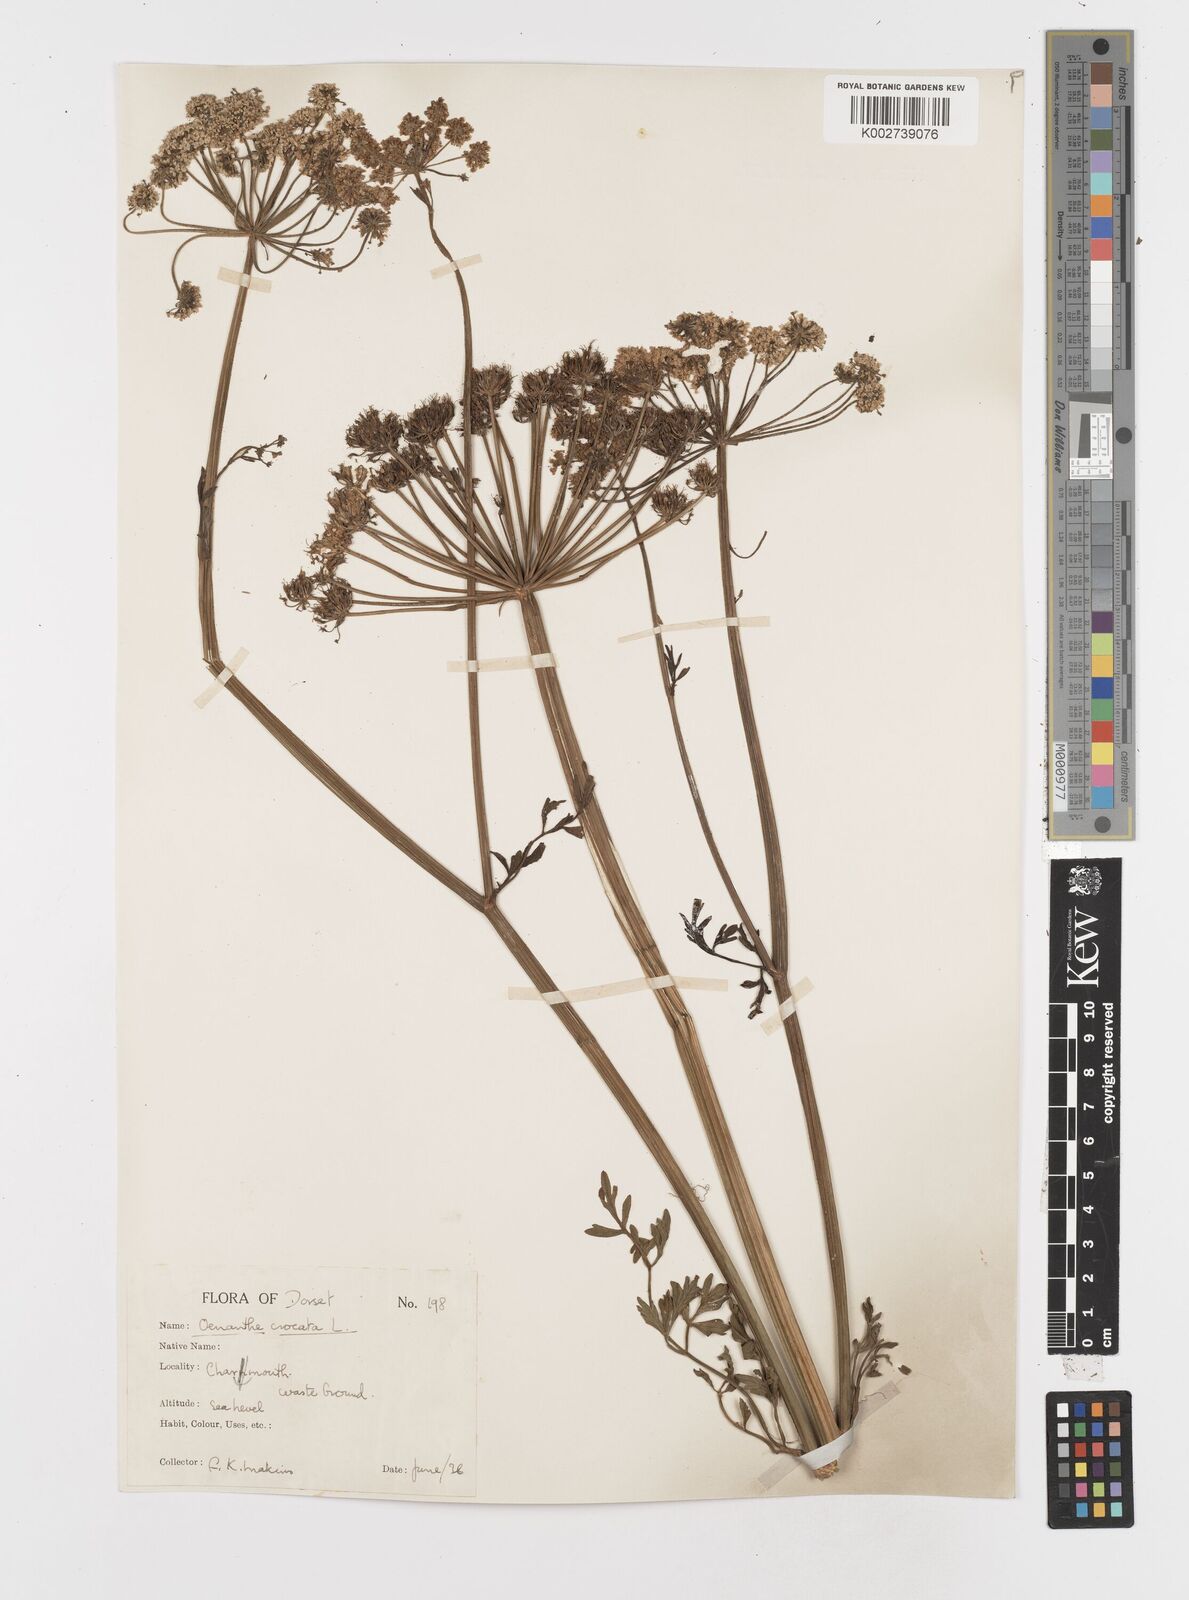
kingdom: Plantae
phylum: Tracheophyta
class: Magnoliopsida
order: Apiales
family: Apiaceae
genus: Oenanthe
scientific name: Oenanthe crocata
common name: Hemlock water-dropwort
